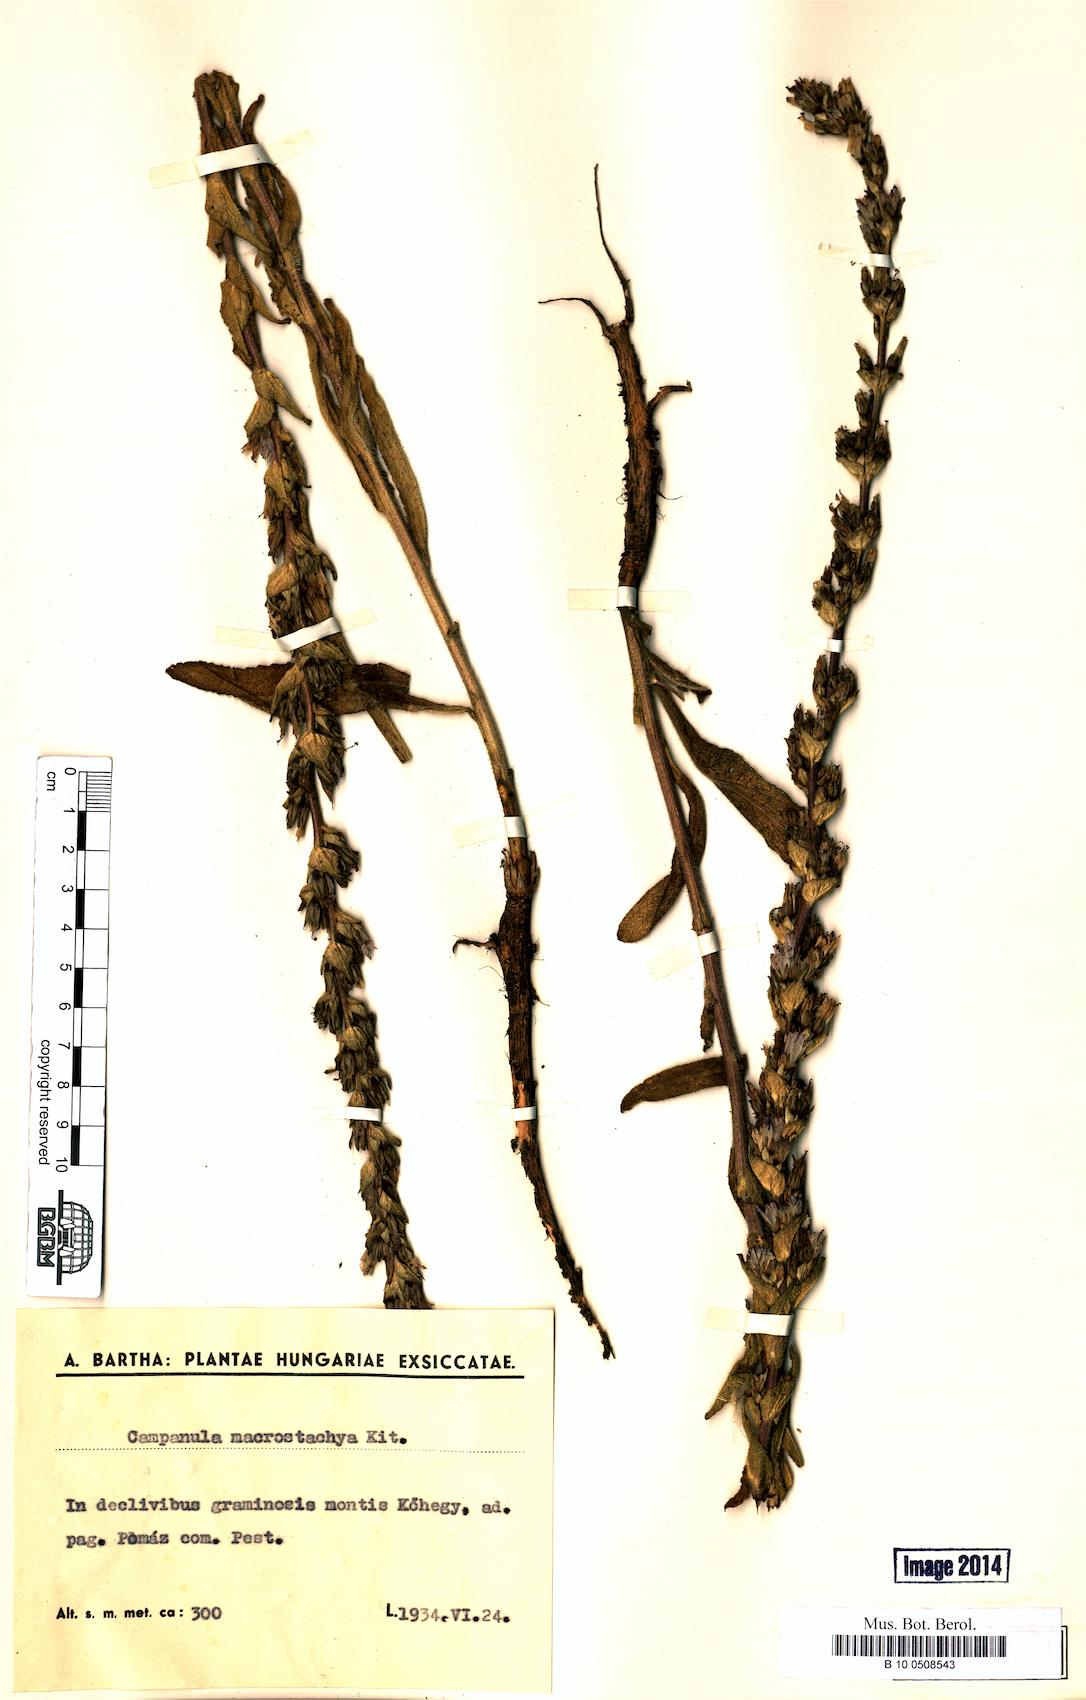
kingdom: Plantae
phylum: Tracheophyta
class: Magnoliopsida
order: Asterales
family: Campanulaceae
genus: Campanula
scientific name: Campanula macrostachya
